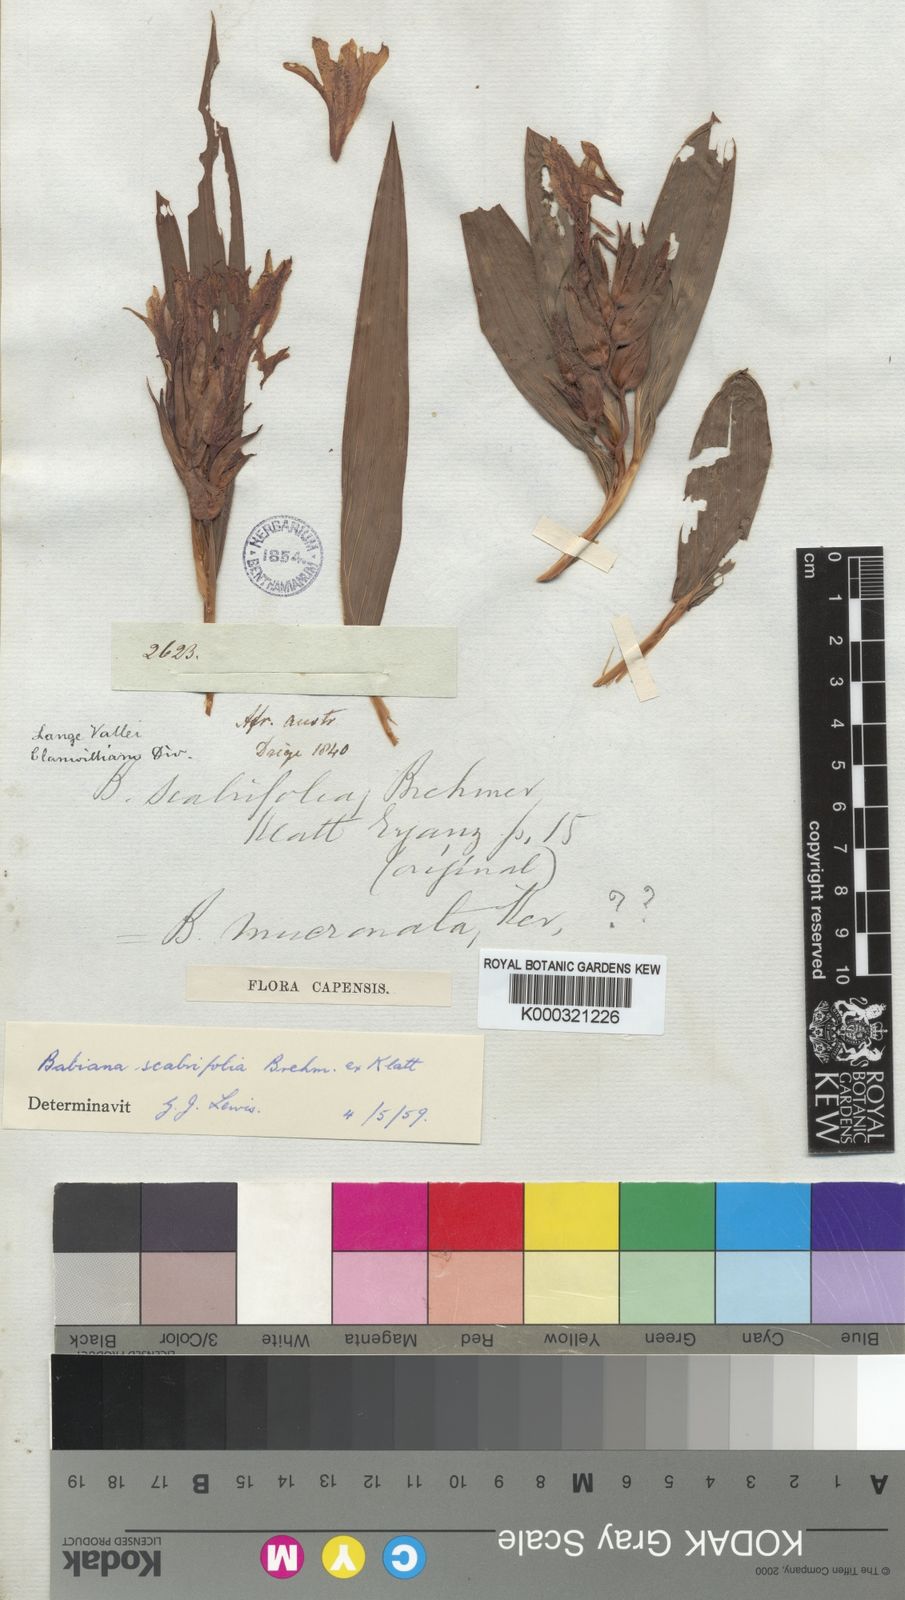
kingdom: Plantae
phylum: Tracheophyta
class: Liliopsida
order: Asparagales
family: Iridaceae
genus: Babiana
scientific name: Babiana scabrifolia
